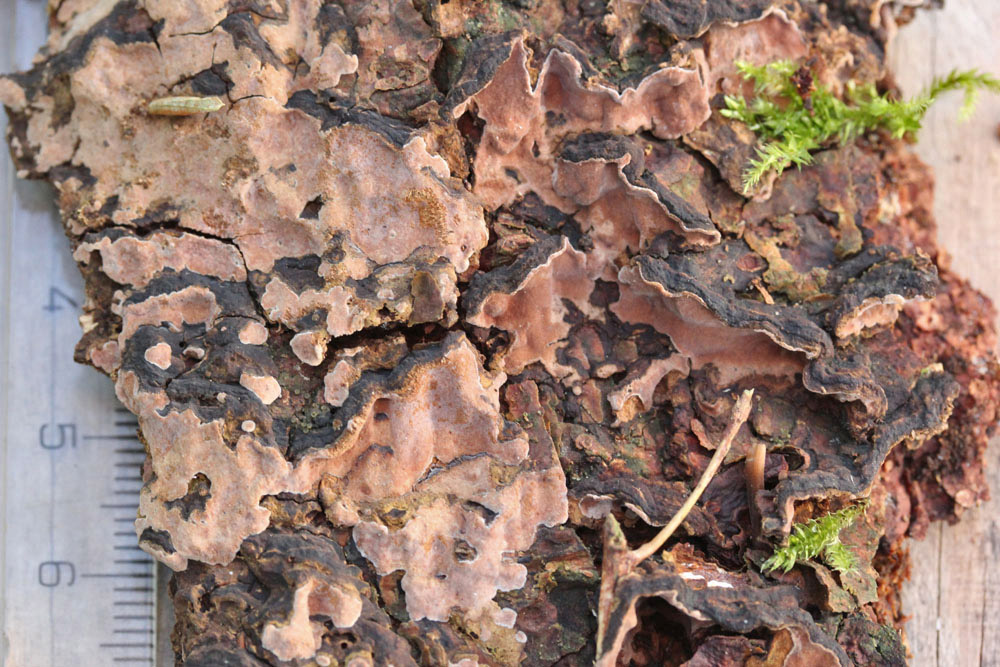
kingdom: Fungi
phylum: Basidiomycota
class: Agaricomycetes
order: Russulales
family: Echinodontiaceae
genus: Amylostereum
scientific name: Amylostereum chailletii
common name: gran-lædersvamp
